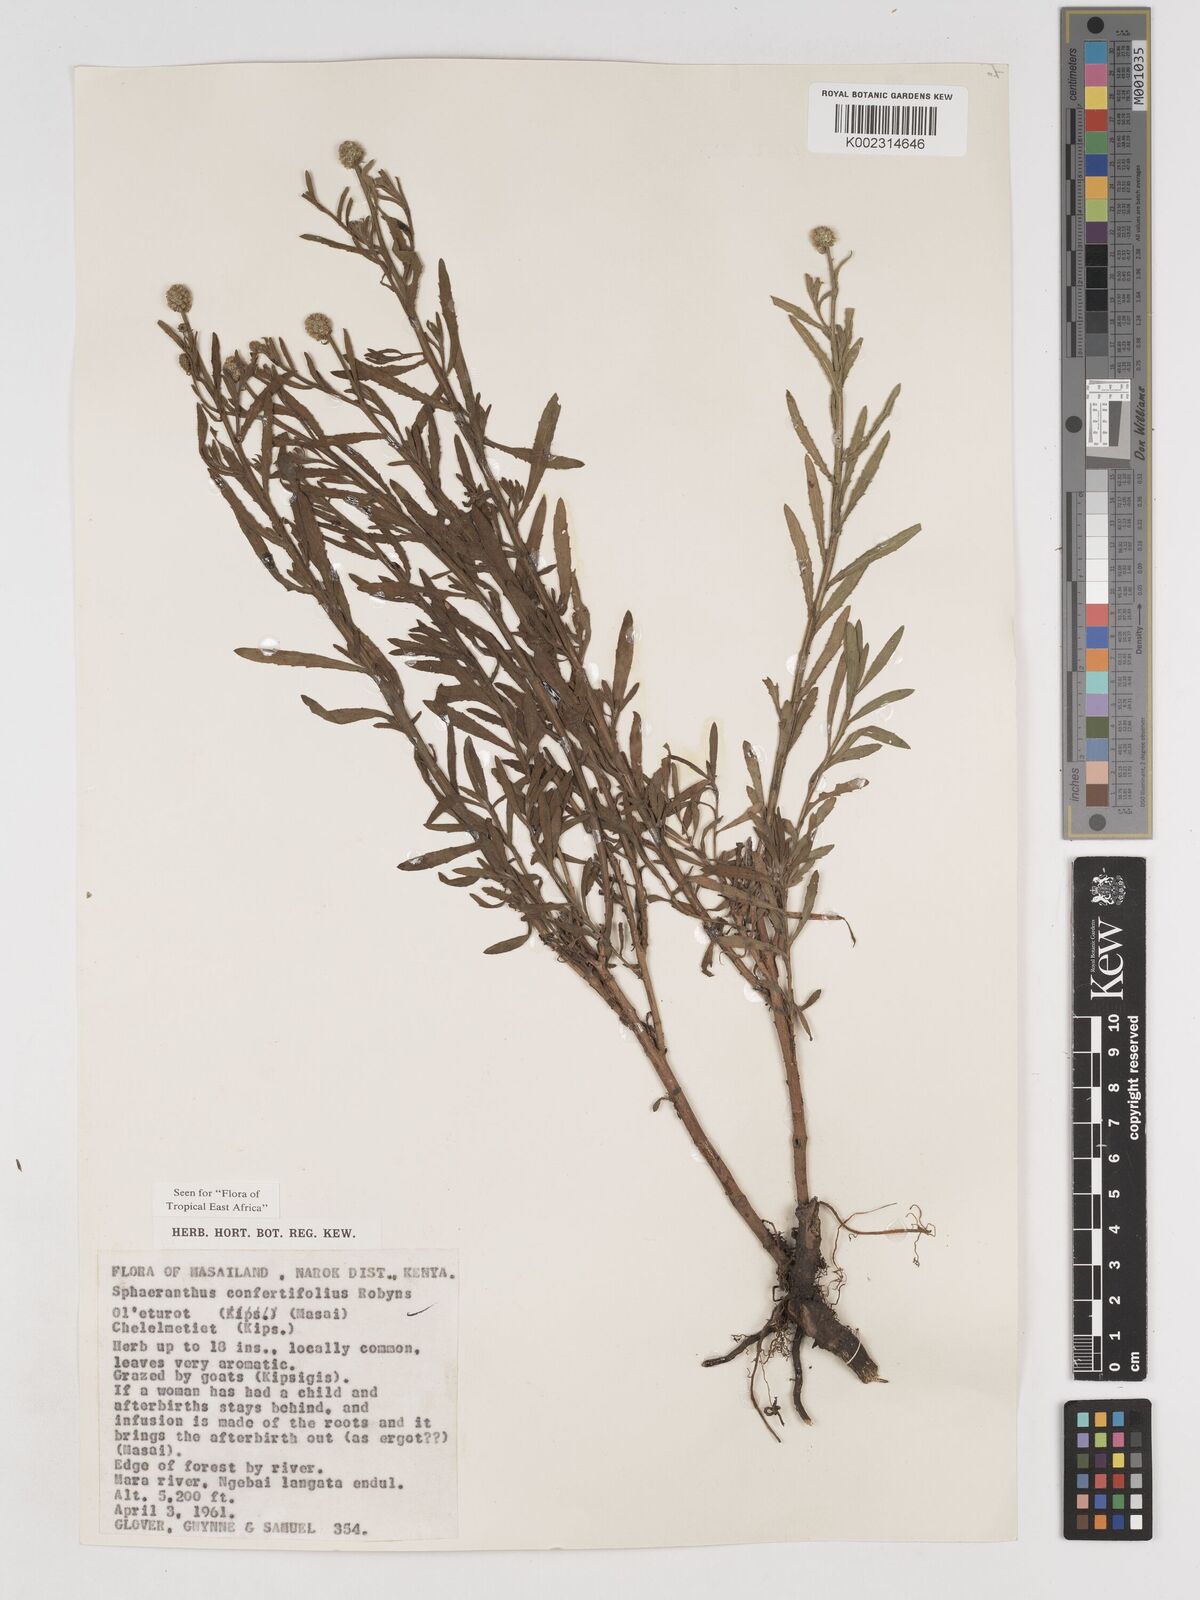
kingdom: Plantae
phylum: Tracheophyta
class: Magnoliopsida
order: Asterales
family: Asteraceae
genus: Sphaeranthus
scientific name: Sphaeranthus confertifolius
